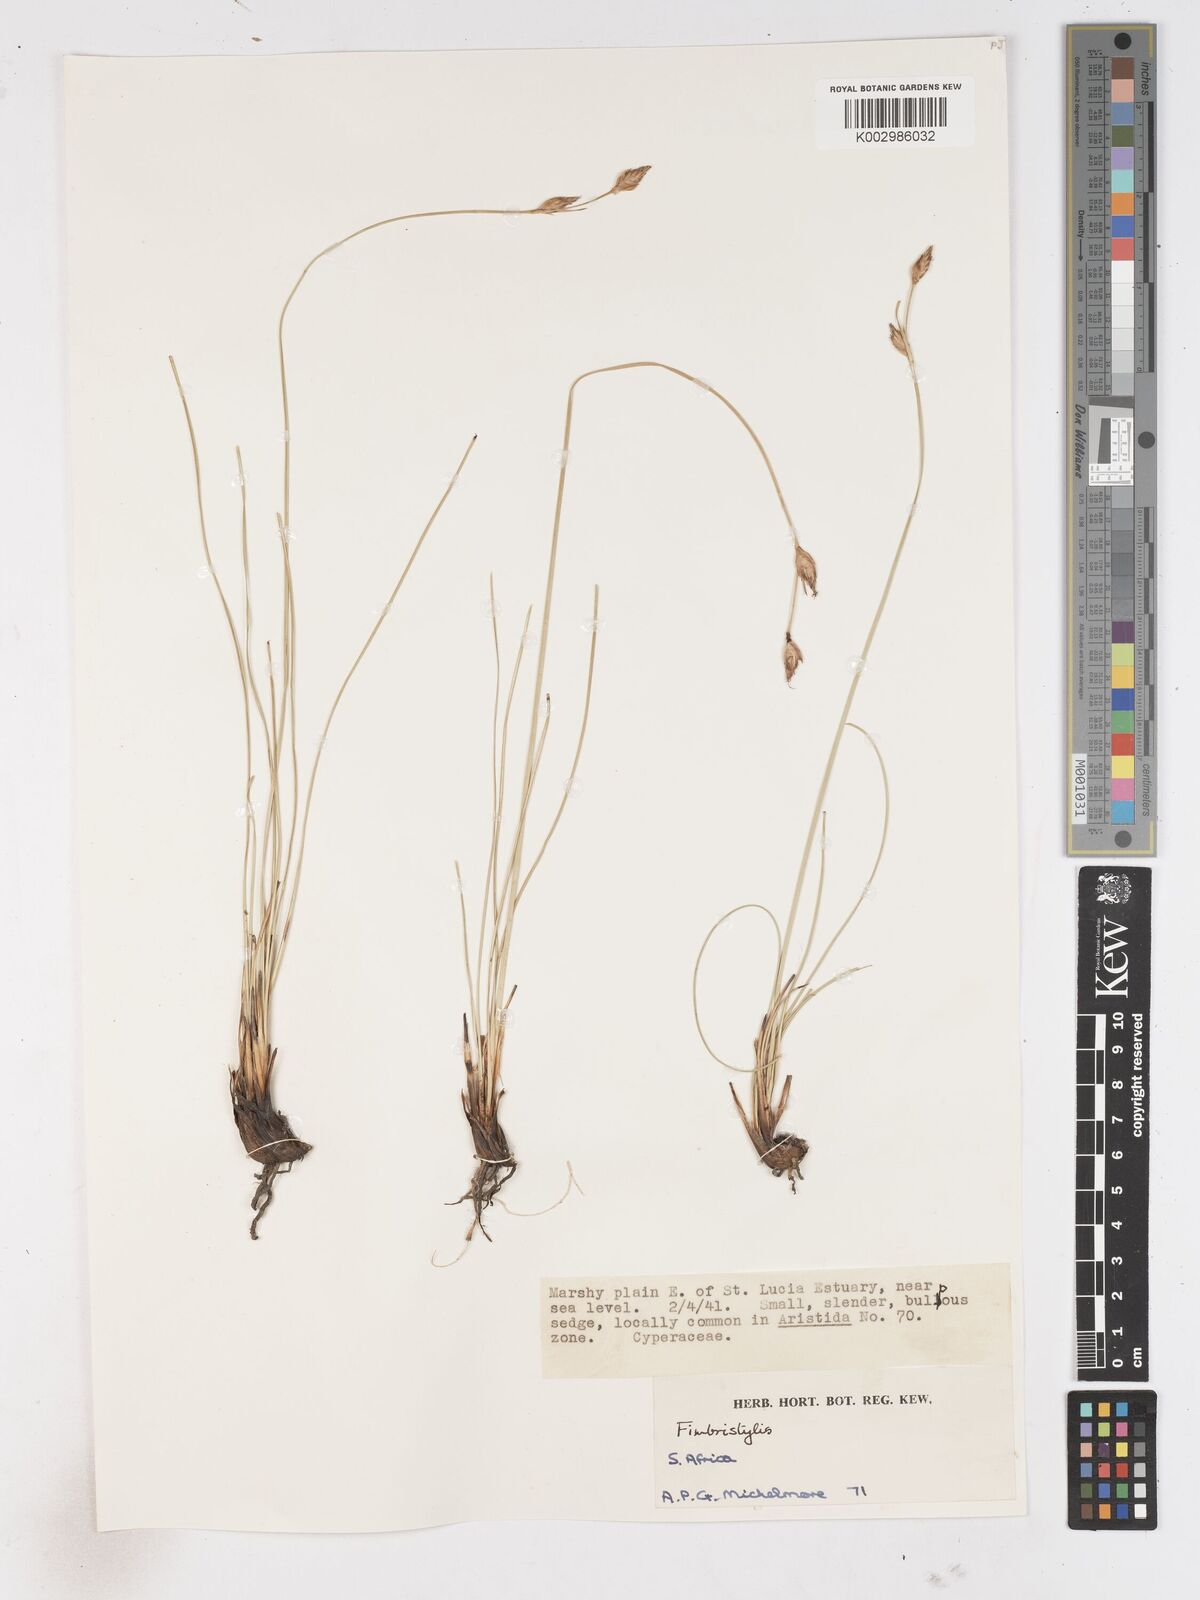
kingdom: Plantae
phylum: Tracheophyta
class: Liliopsida
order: Poales
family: Cyperaceae
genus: Fimbristylis
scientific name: Fimbristylis
